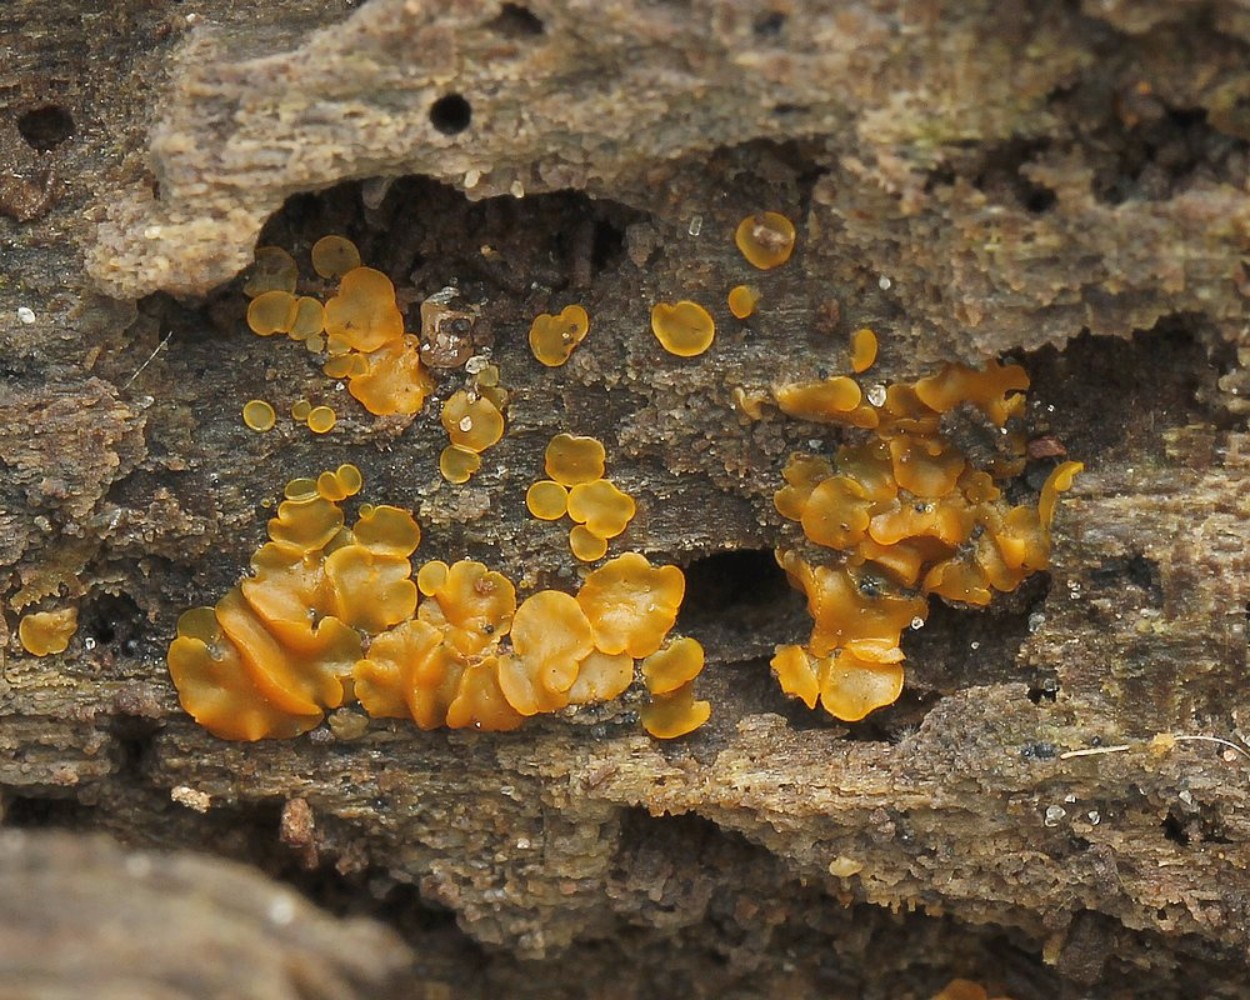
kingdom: Fungi
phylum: Ascomycota
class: Orbiliomycetes
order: Orbiliales
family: Orbiliaceae
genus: Orbilia
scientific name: Orbilia xanthostigma
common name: krumsporet voksskive
